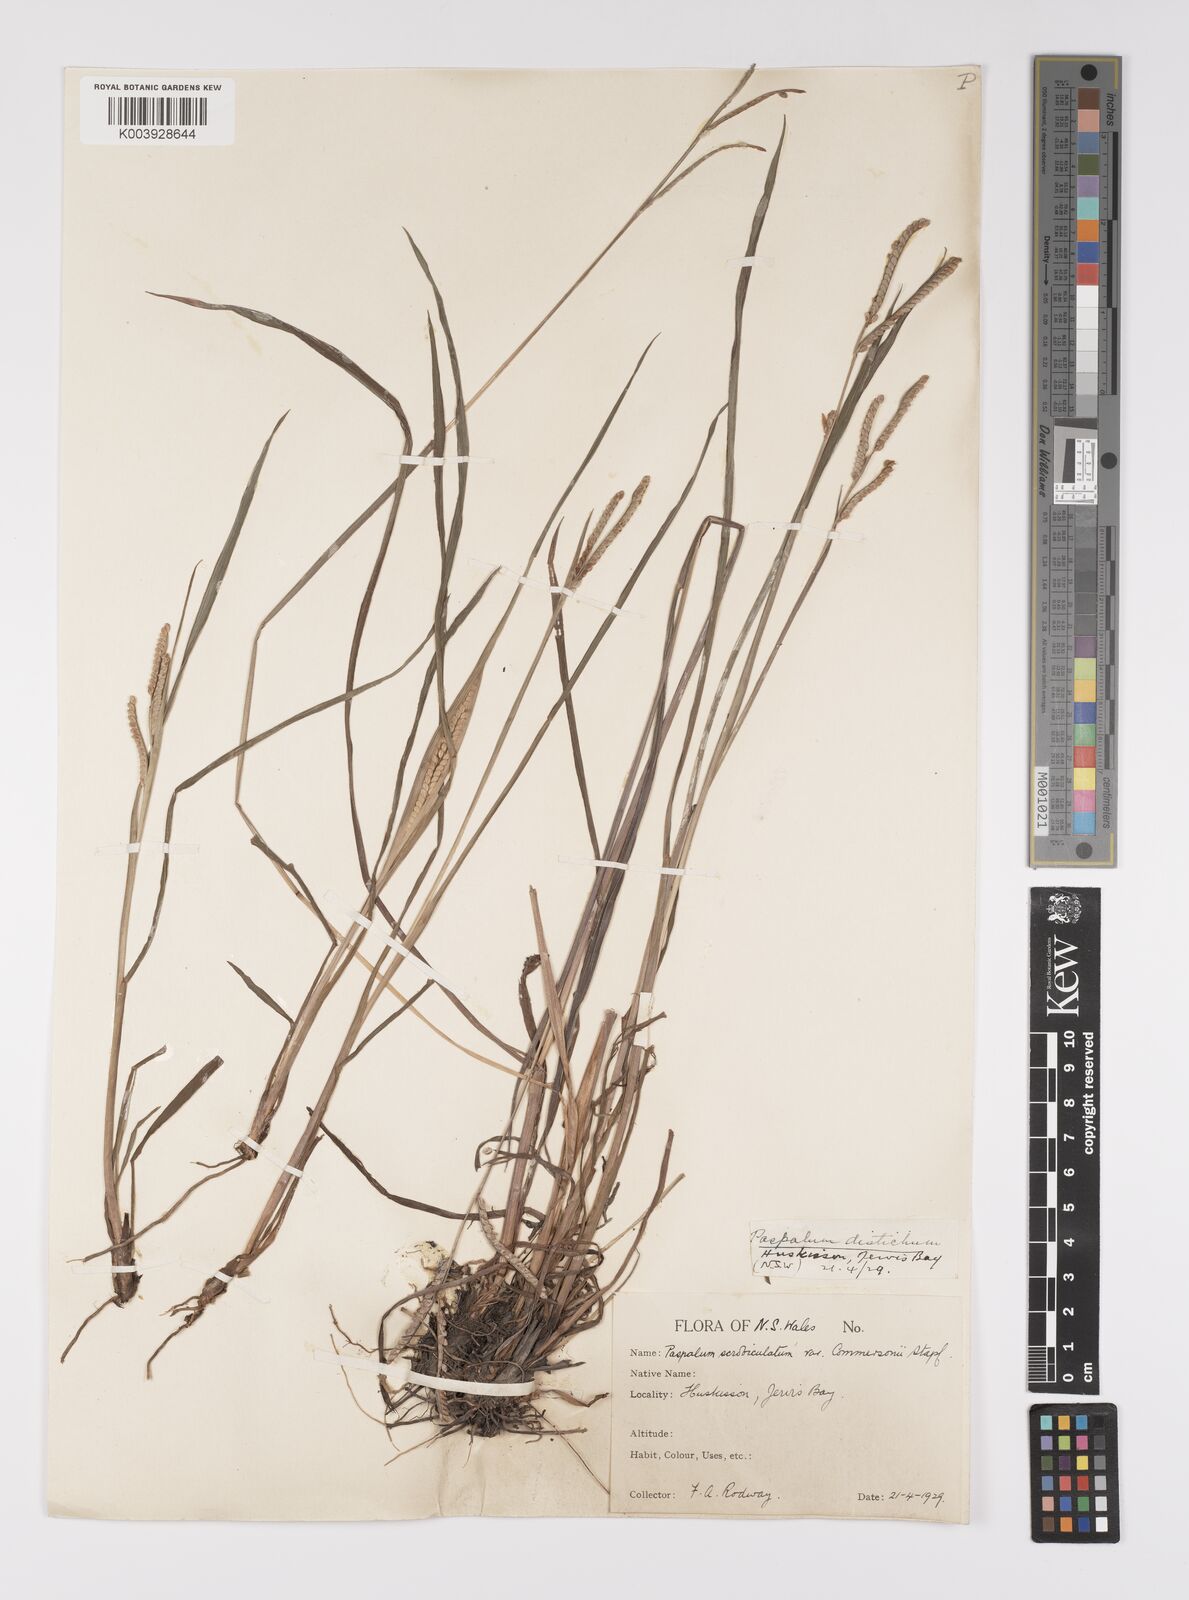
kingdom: Plantae
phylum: Tracheophyta
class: Liliopsida
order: Poales
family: Poaceae
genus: Paspalum
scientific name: Paspalum scrobiculatum
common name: Kodo millet
